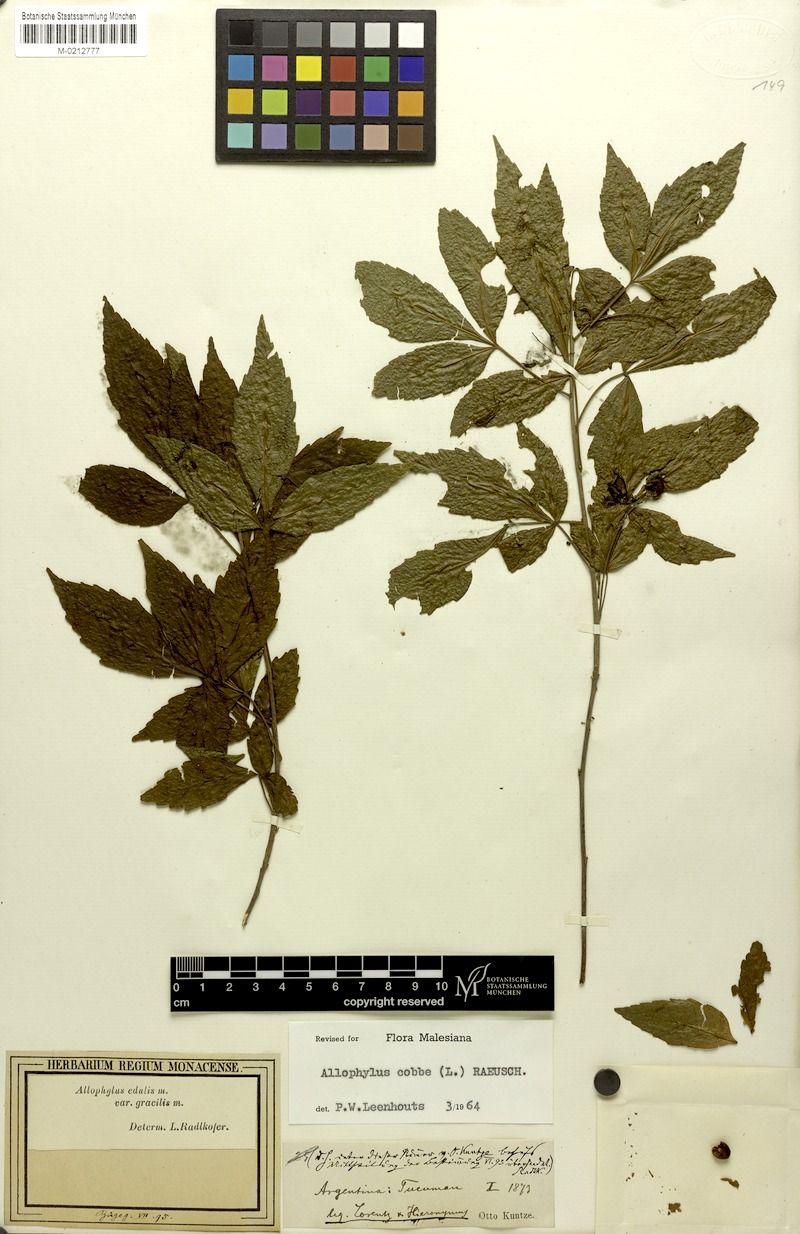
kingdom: Plantae
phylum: Tracheophyta
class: Magnoliopsida
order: Sapindales
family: Sapindaceae
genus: Allophylus
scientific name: Allophylus edulis
